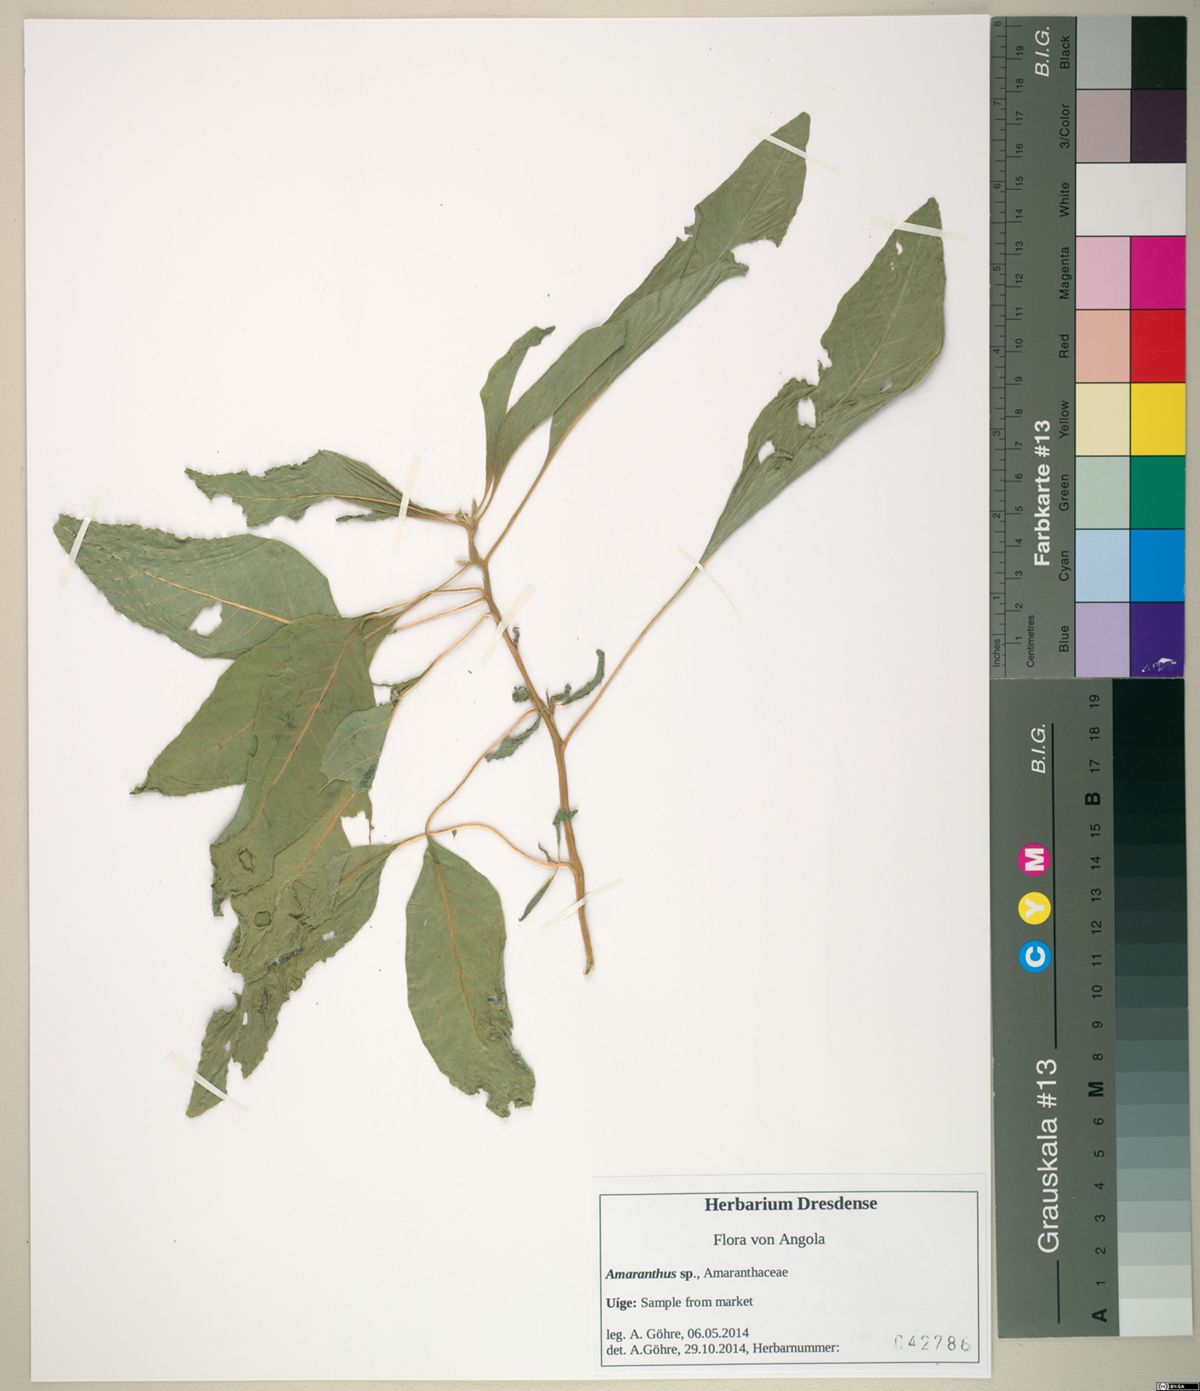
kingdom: Plantae
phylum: Tracheophyta
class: Magnoliopsida
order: Caryophyllales
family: Amaranthaceae
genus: Amaranthus
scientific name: Amaranthus caudatus
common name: Love-lies-bleeding
